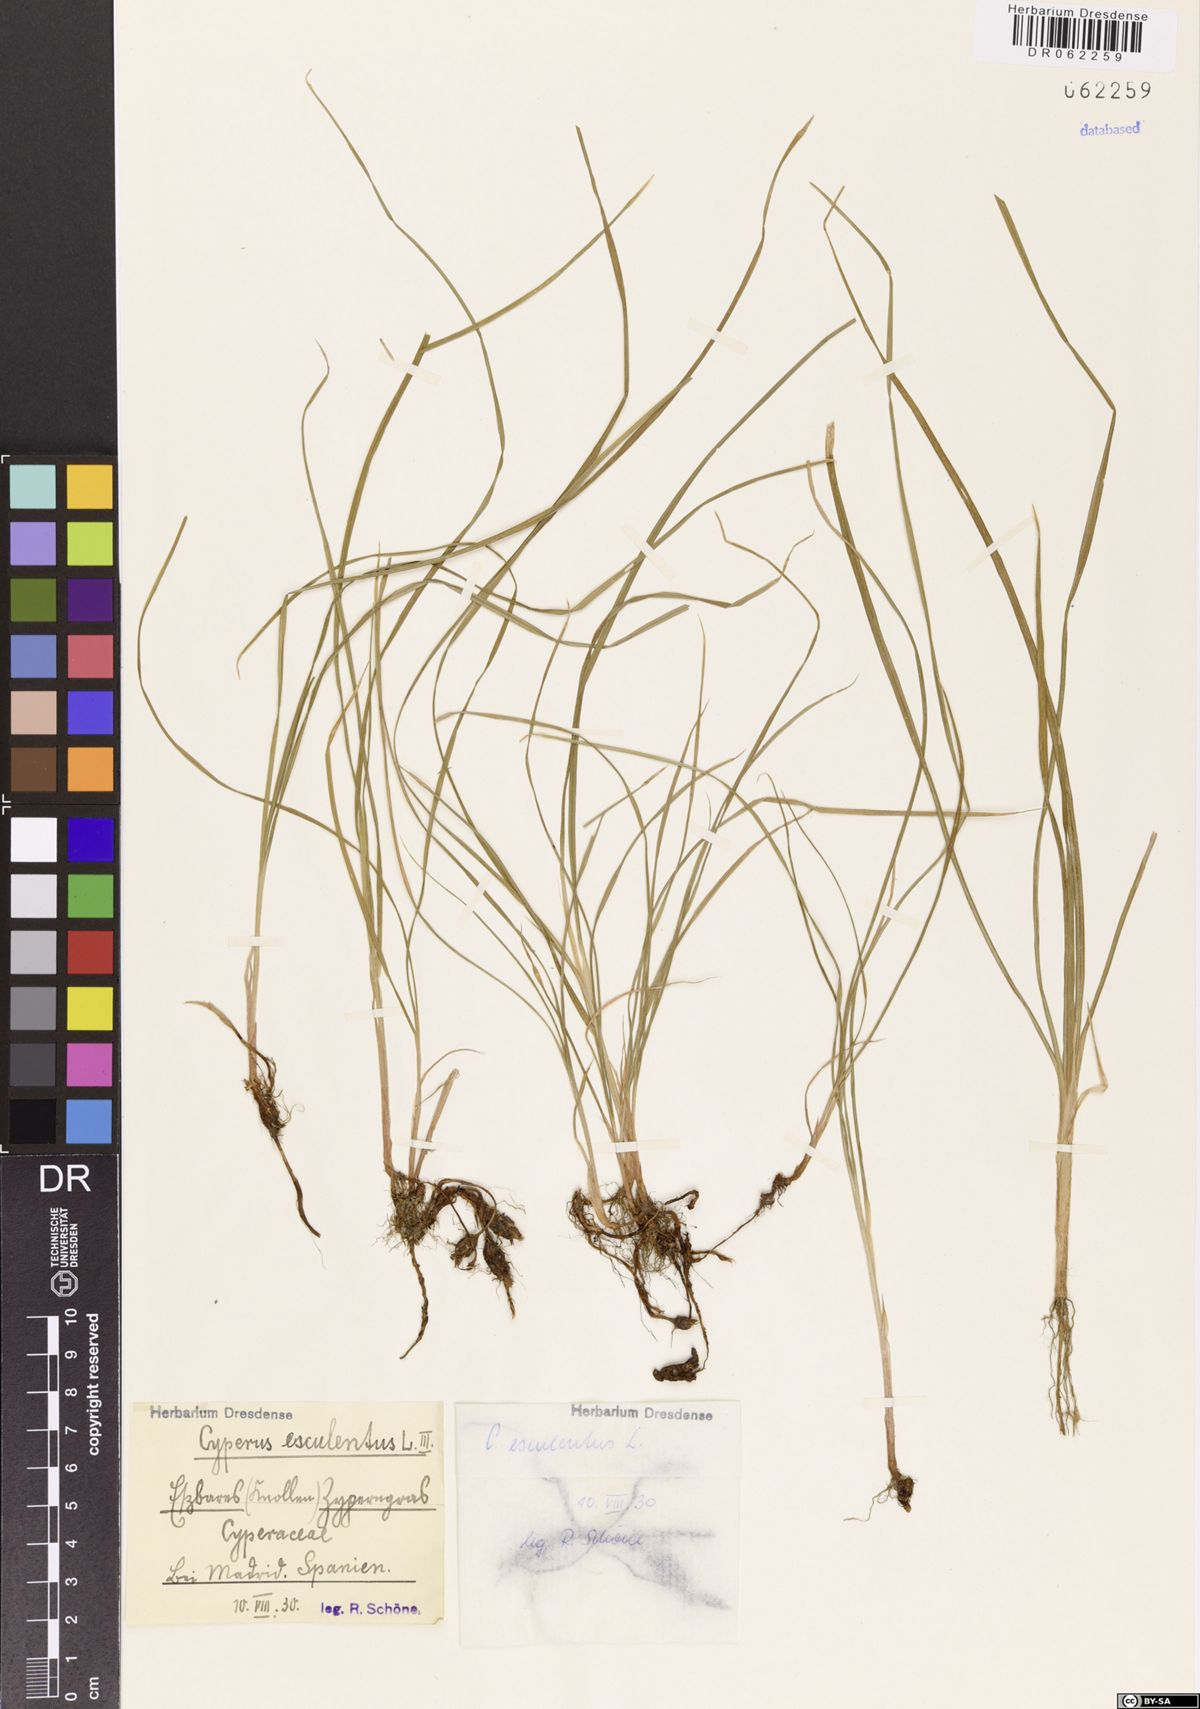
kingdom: Plantae
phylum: Tracheophyta
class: Liliopsida
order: Poales
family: Cyperaceae
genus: Cyperus
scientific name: Cyperus esculentus
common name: Yellow nutsedge
